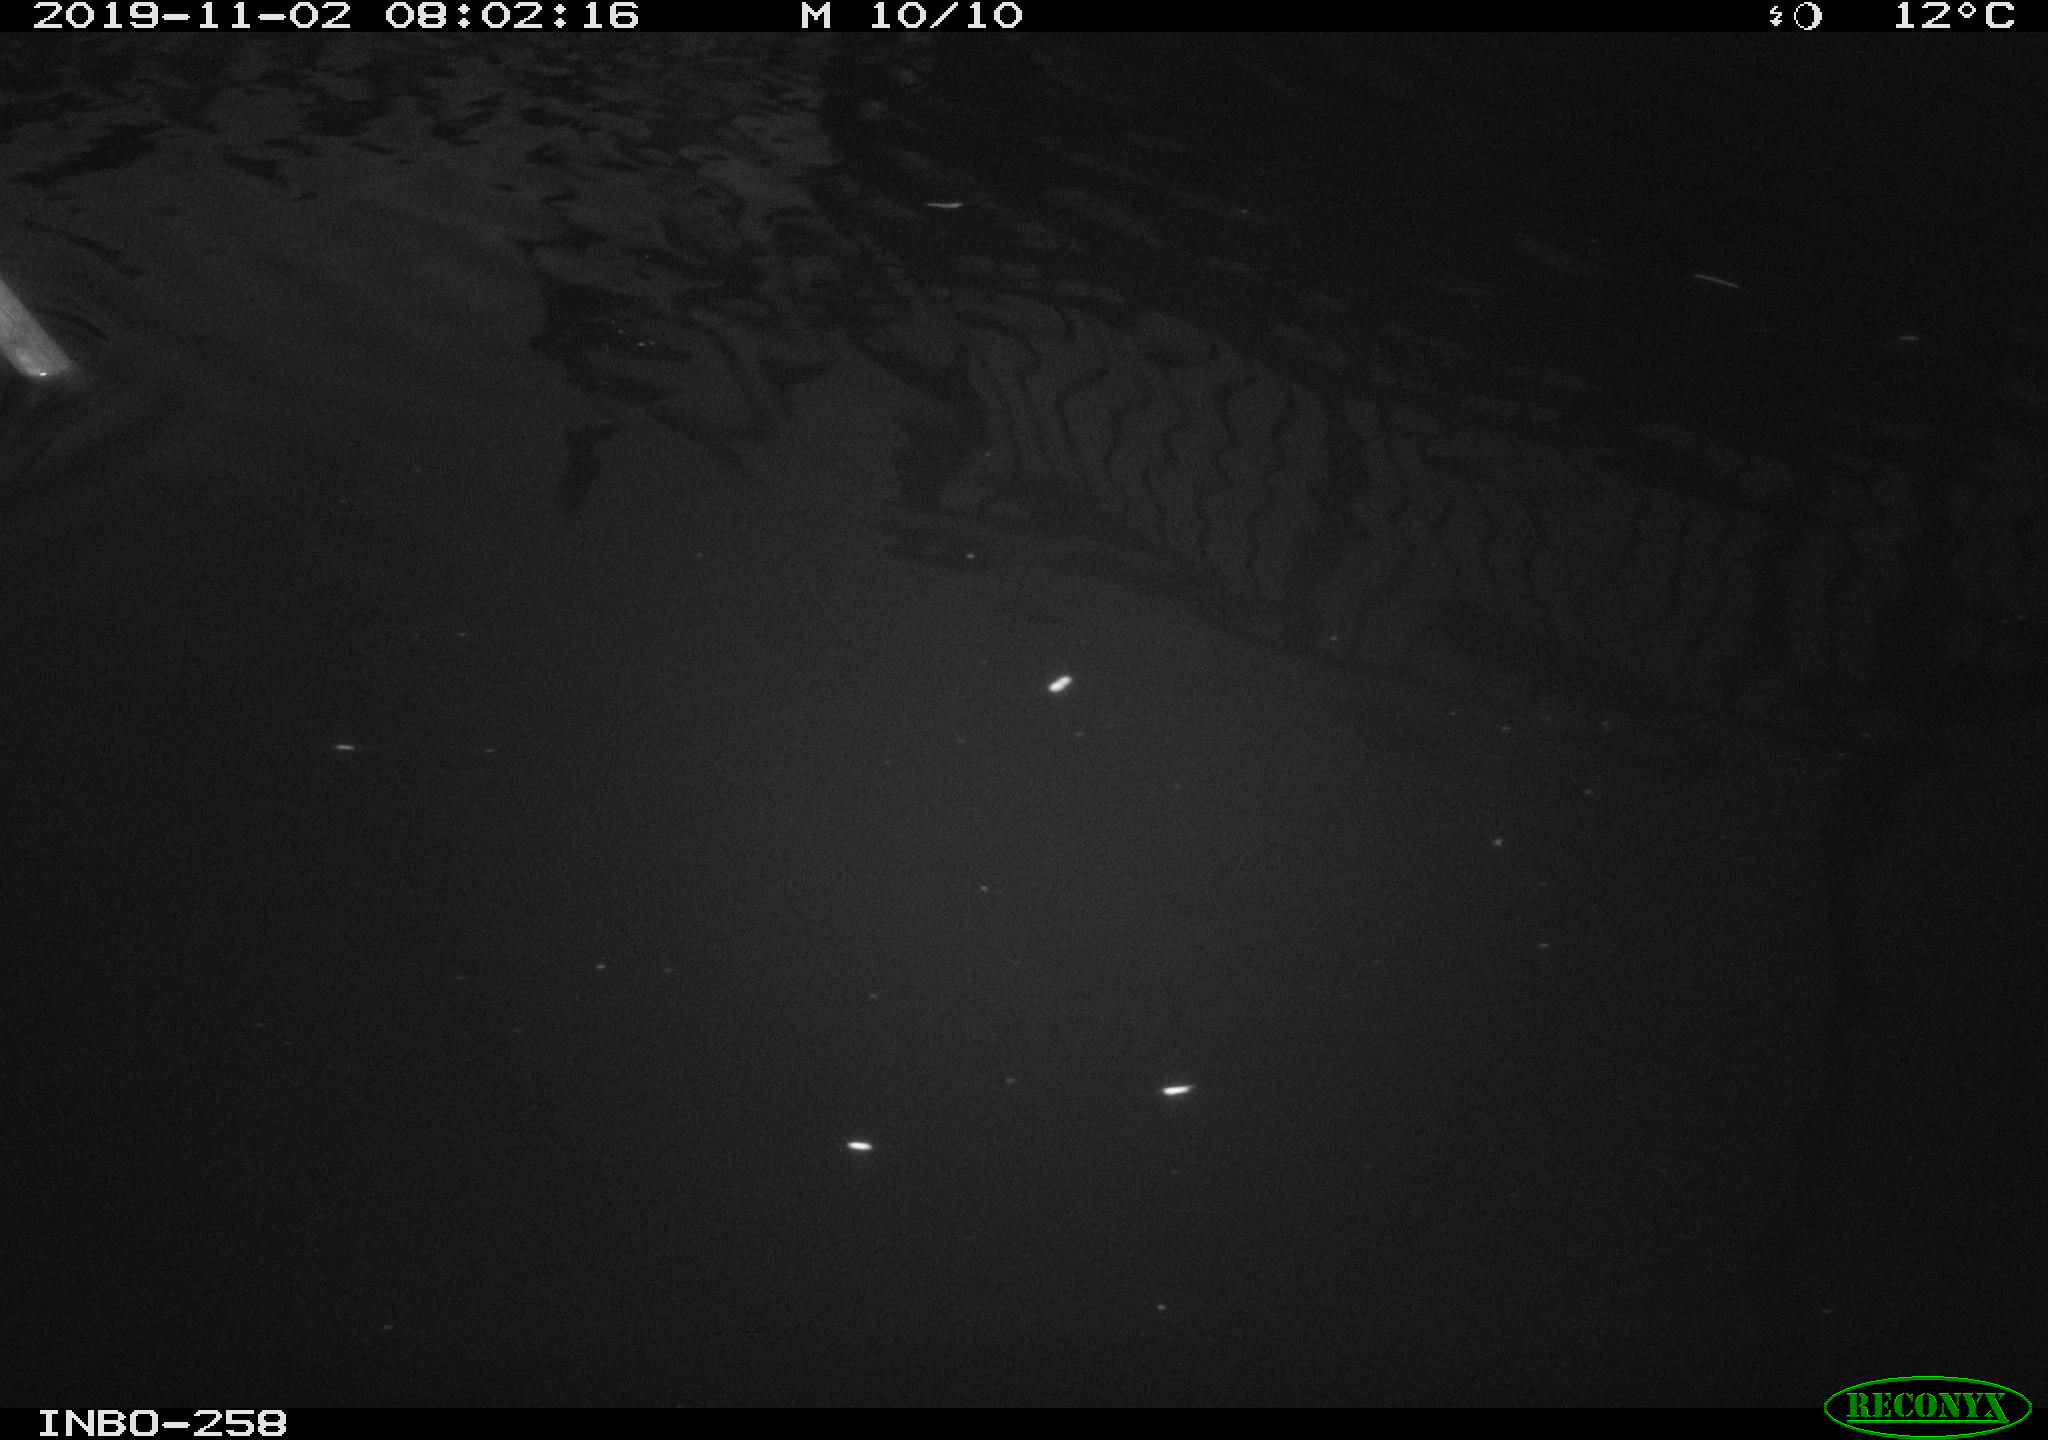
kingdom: Animalia
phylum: Chordata
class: Aves
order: Anseriformes
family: Anatidae
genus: Anas
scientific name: Anas platyrhynchos
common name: Mallard
